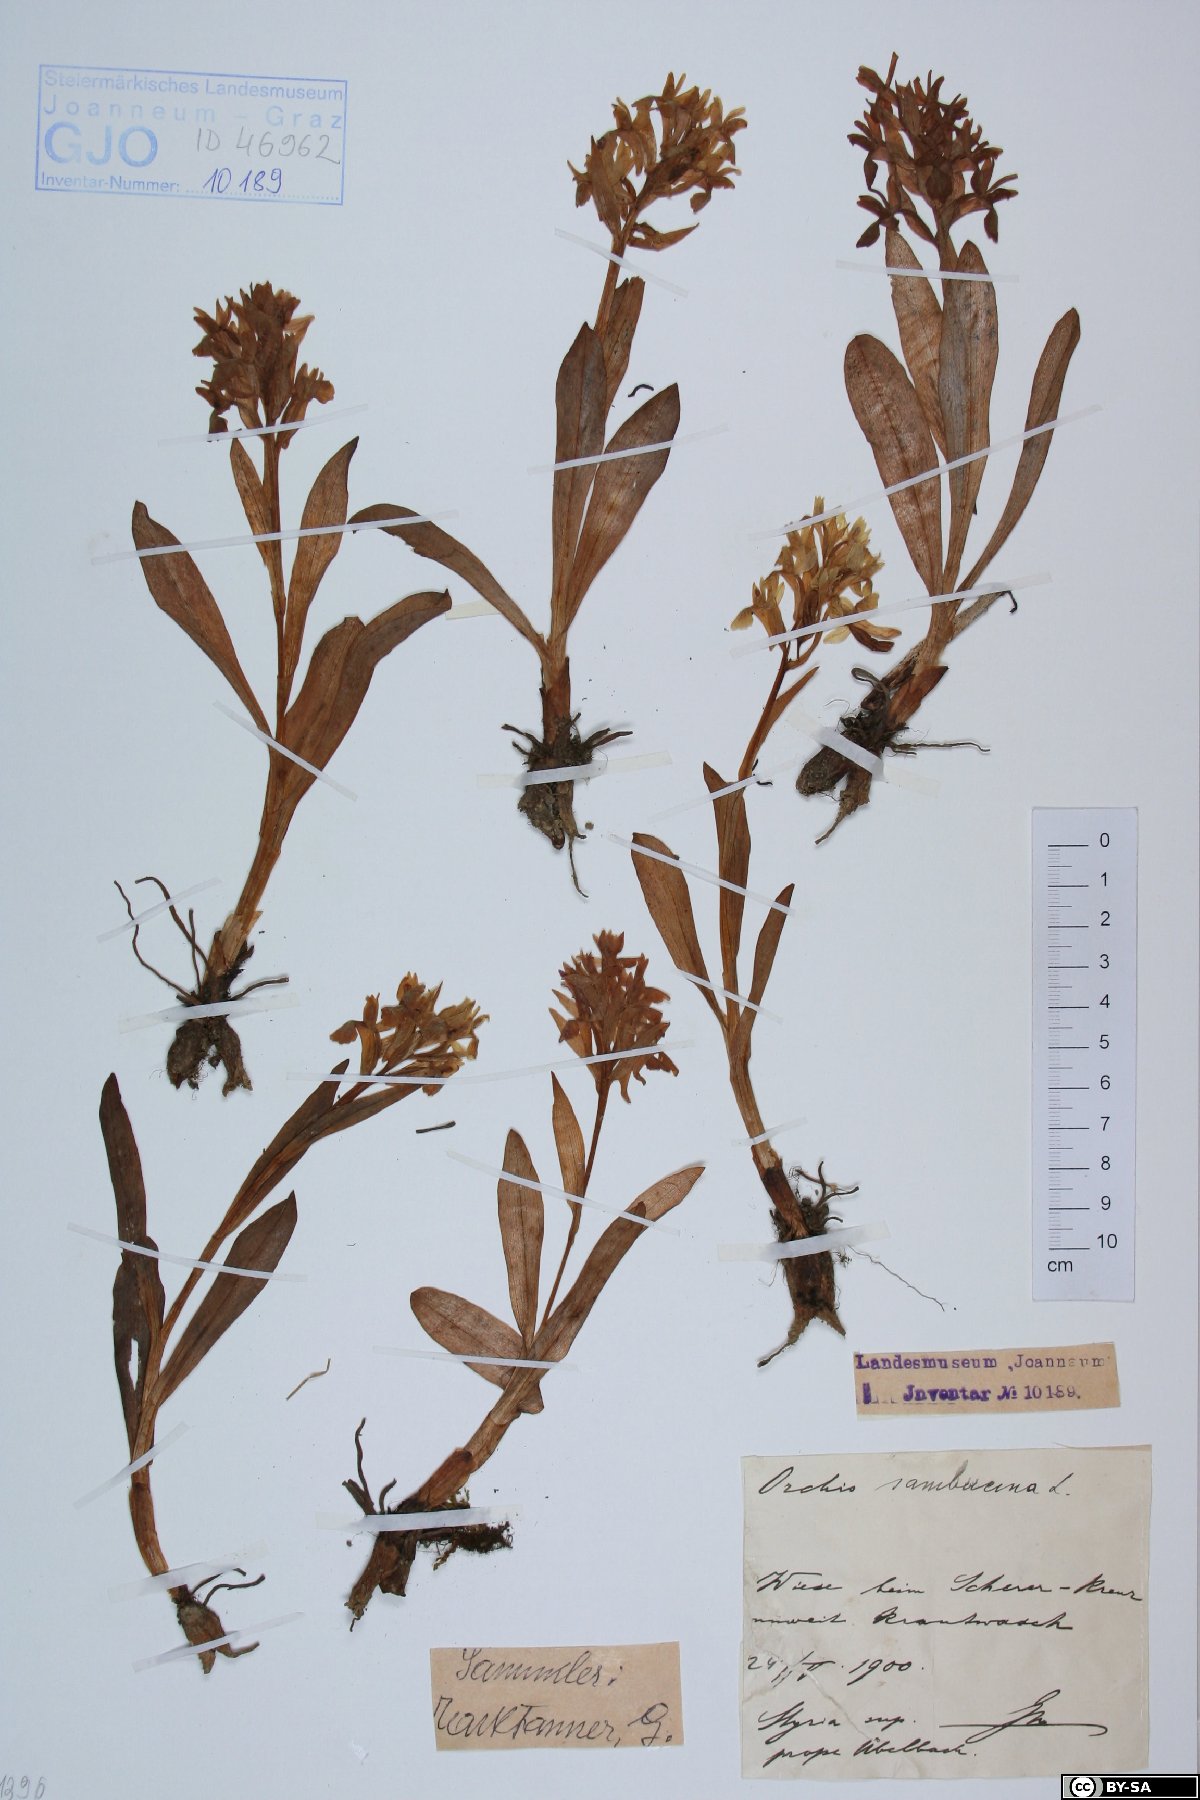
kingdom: Plantae
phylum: Tracheophyta
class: Liliopsida
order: Asparagales
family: Orchidaceae
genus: Dactylorhiza
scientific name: Dactylorhiza sambucina
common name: Elder-flowered orchid
